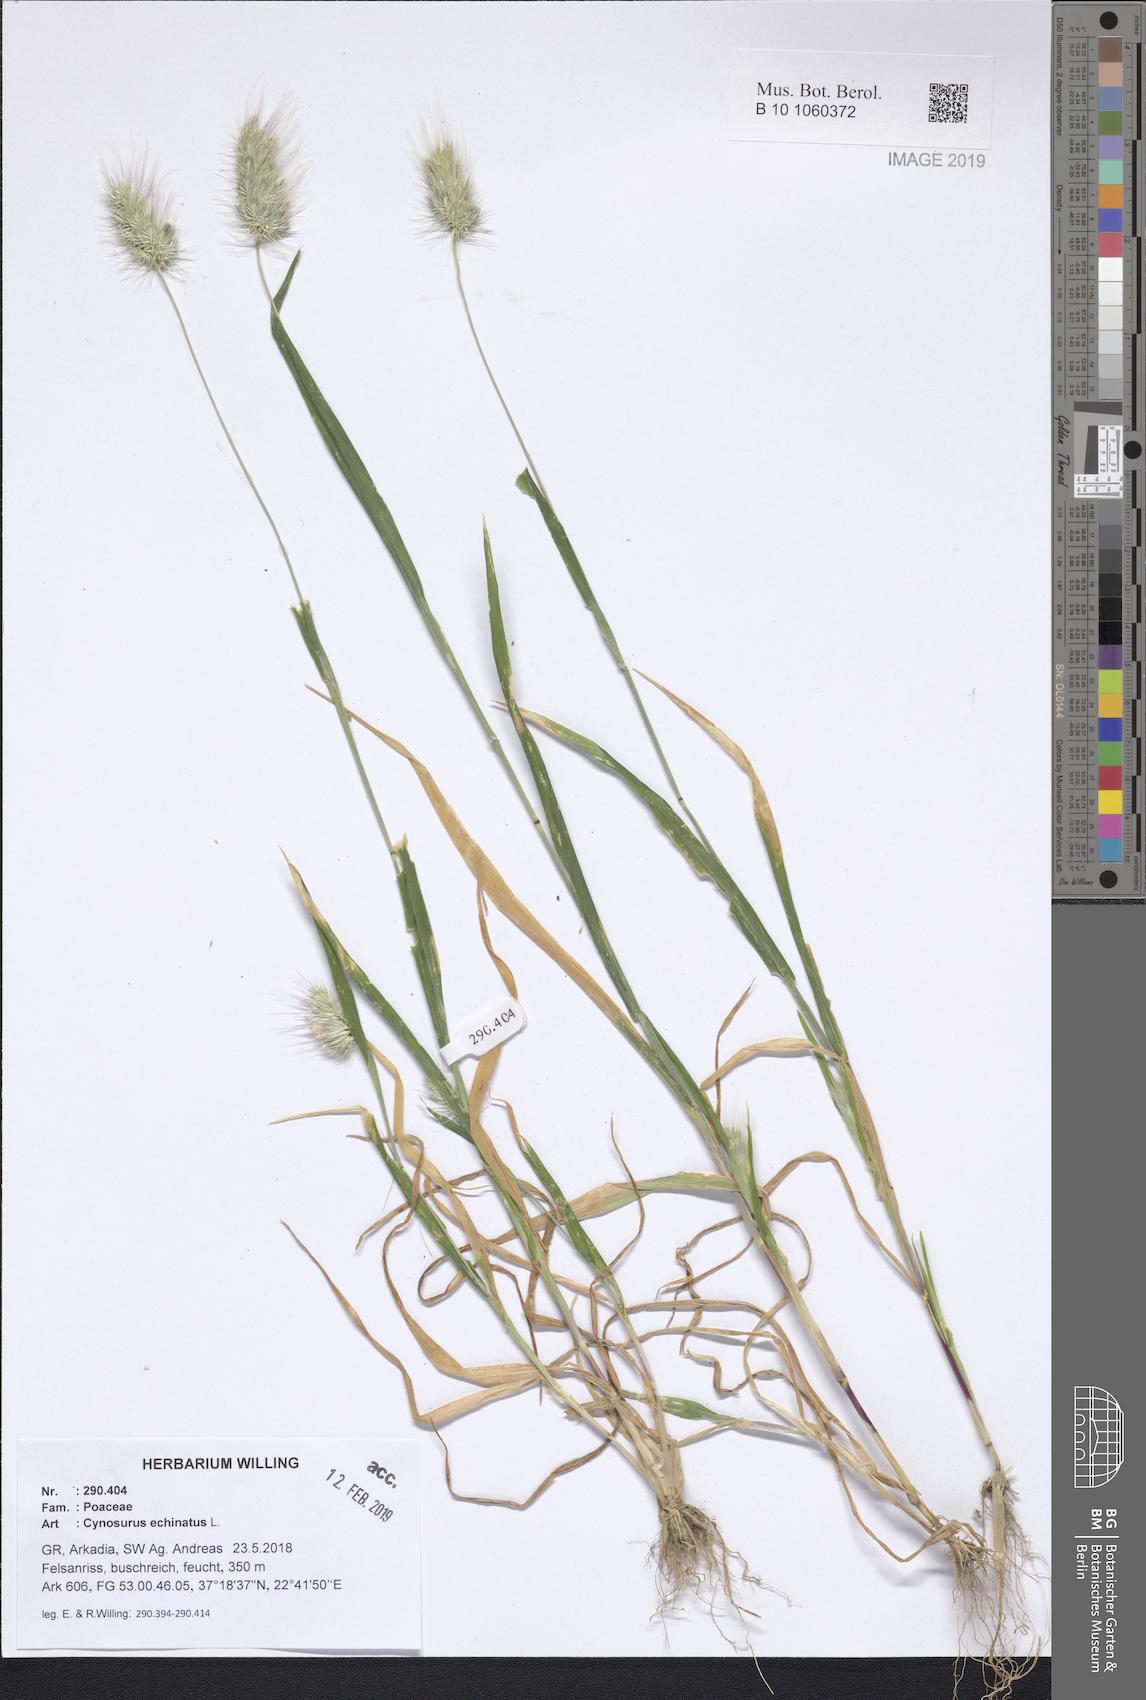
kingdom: Plantae
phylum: Tracheophyta
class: Liliopsida
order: Poales
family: Poaceae
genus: Cynosurus
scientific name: Cynosurus echinatus
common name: Rough dog's-tail
